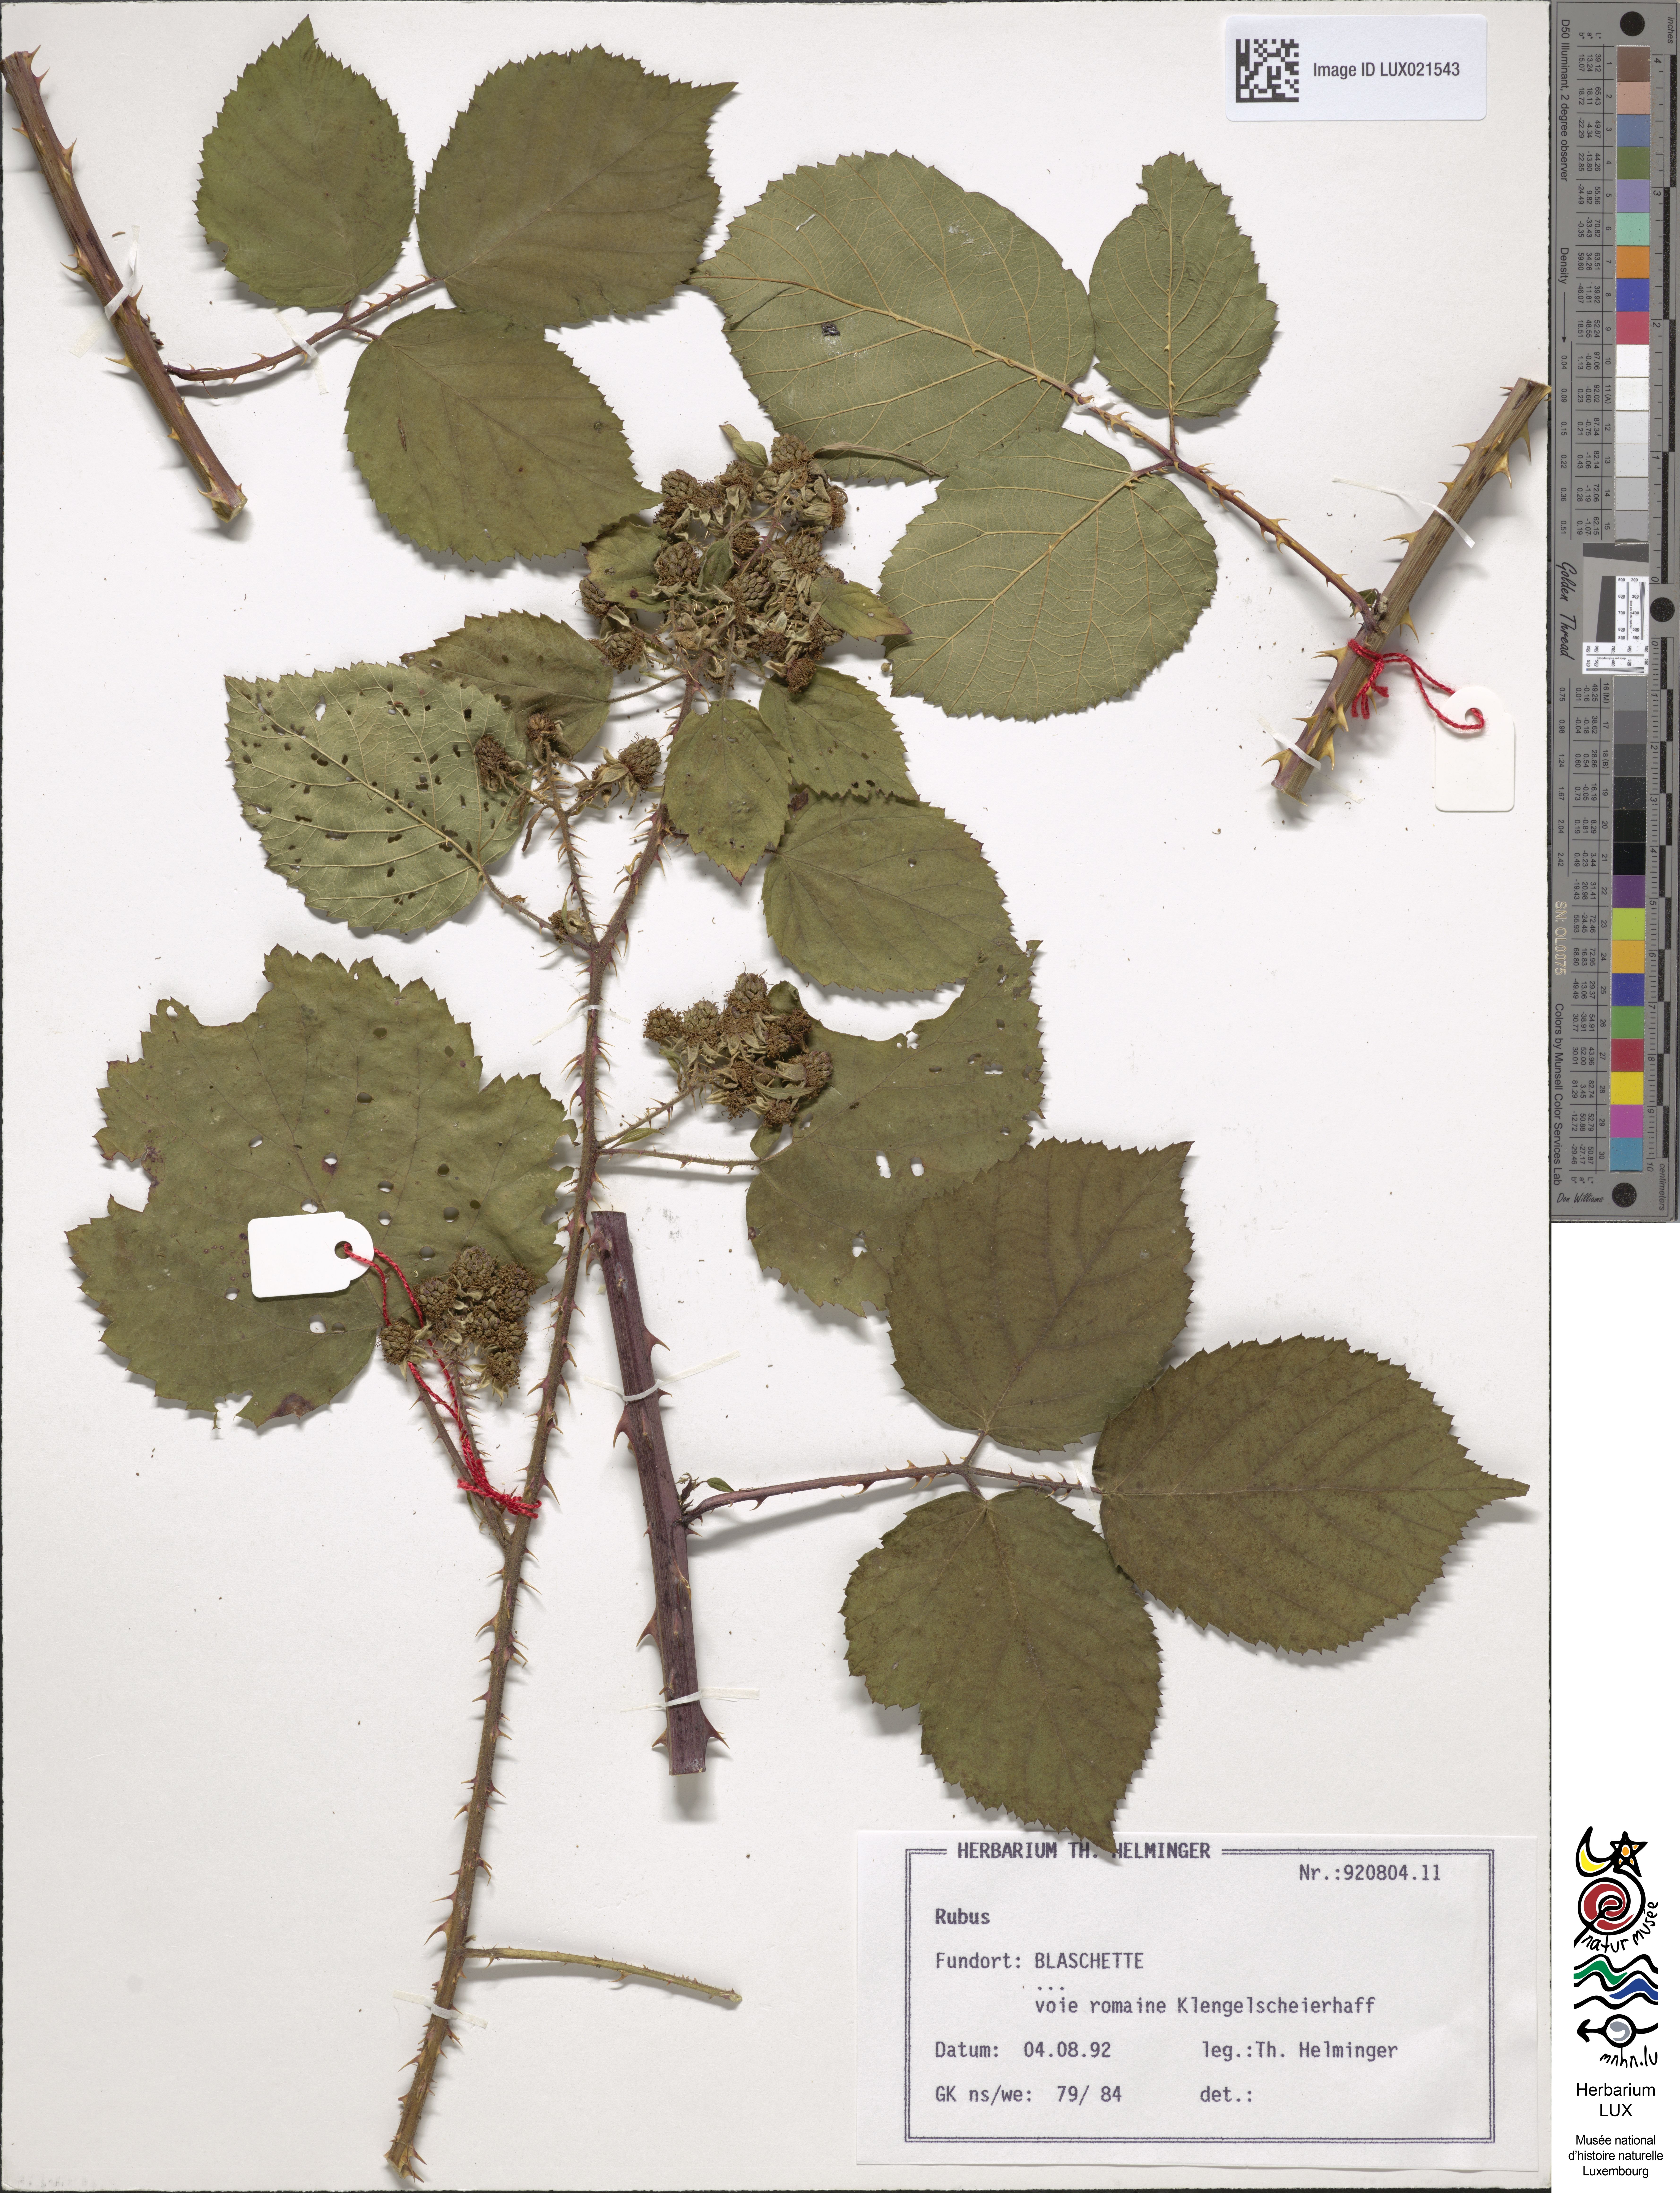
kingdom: Plantae
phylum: Tracheophyta
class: Magnoliopsida
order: Rosales
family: Rosaceae
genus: Rubus
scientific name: Rubus
